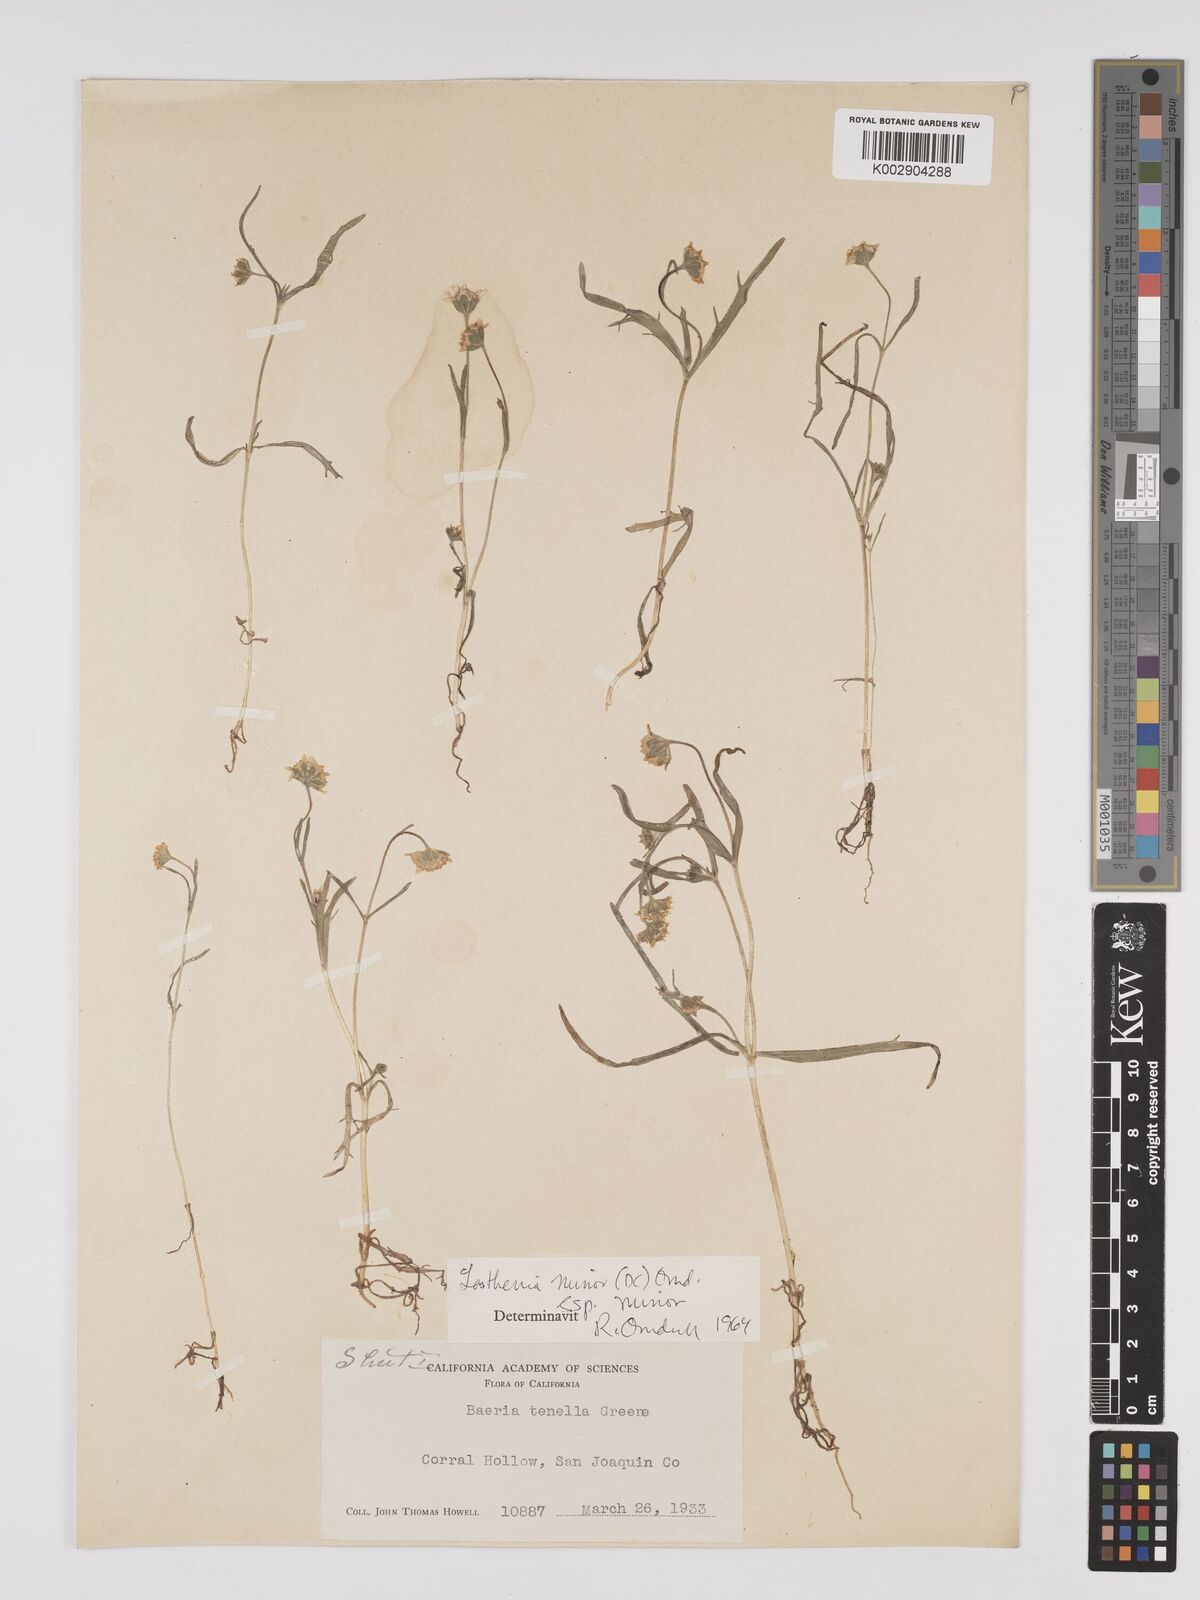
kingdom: Plantae
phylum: Tracheophyta
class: Magnoliopsida
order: Asterales
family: Asteraceae
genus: Lasthenia
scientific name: Lasthenia minor
